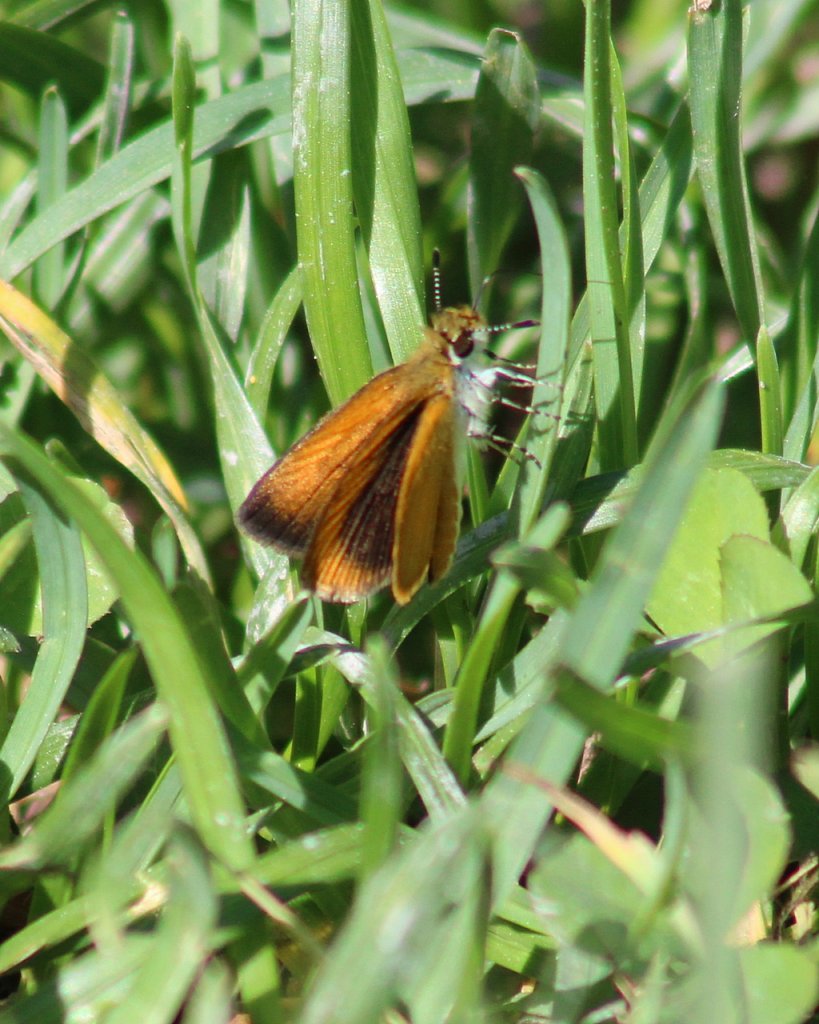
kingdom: Animalia
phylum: Arthropoda
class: Insecta
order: Lepidoptera
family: Hesperiidae
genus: Ancyloxypha
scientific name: Ancyloxypha numitor
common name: Least Skipper
